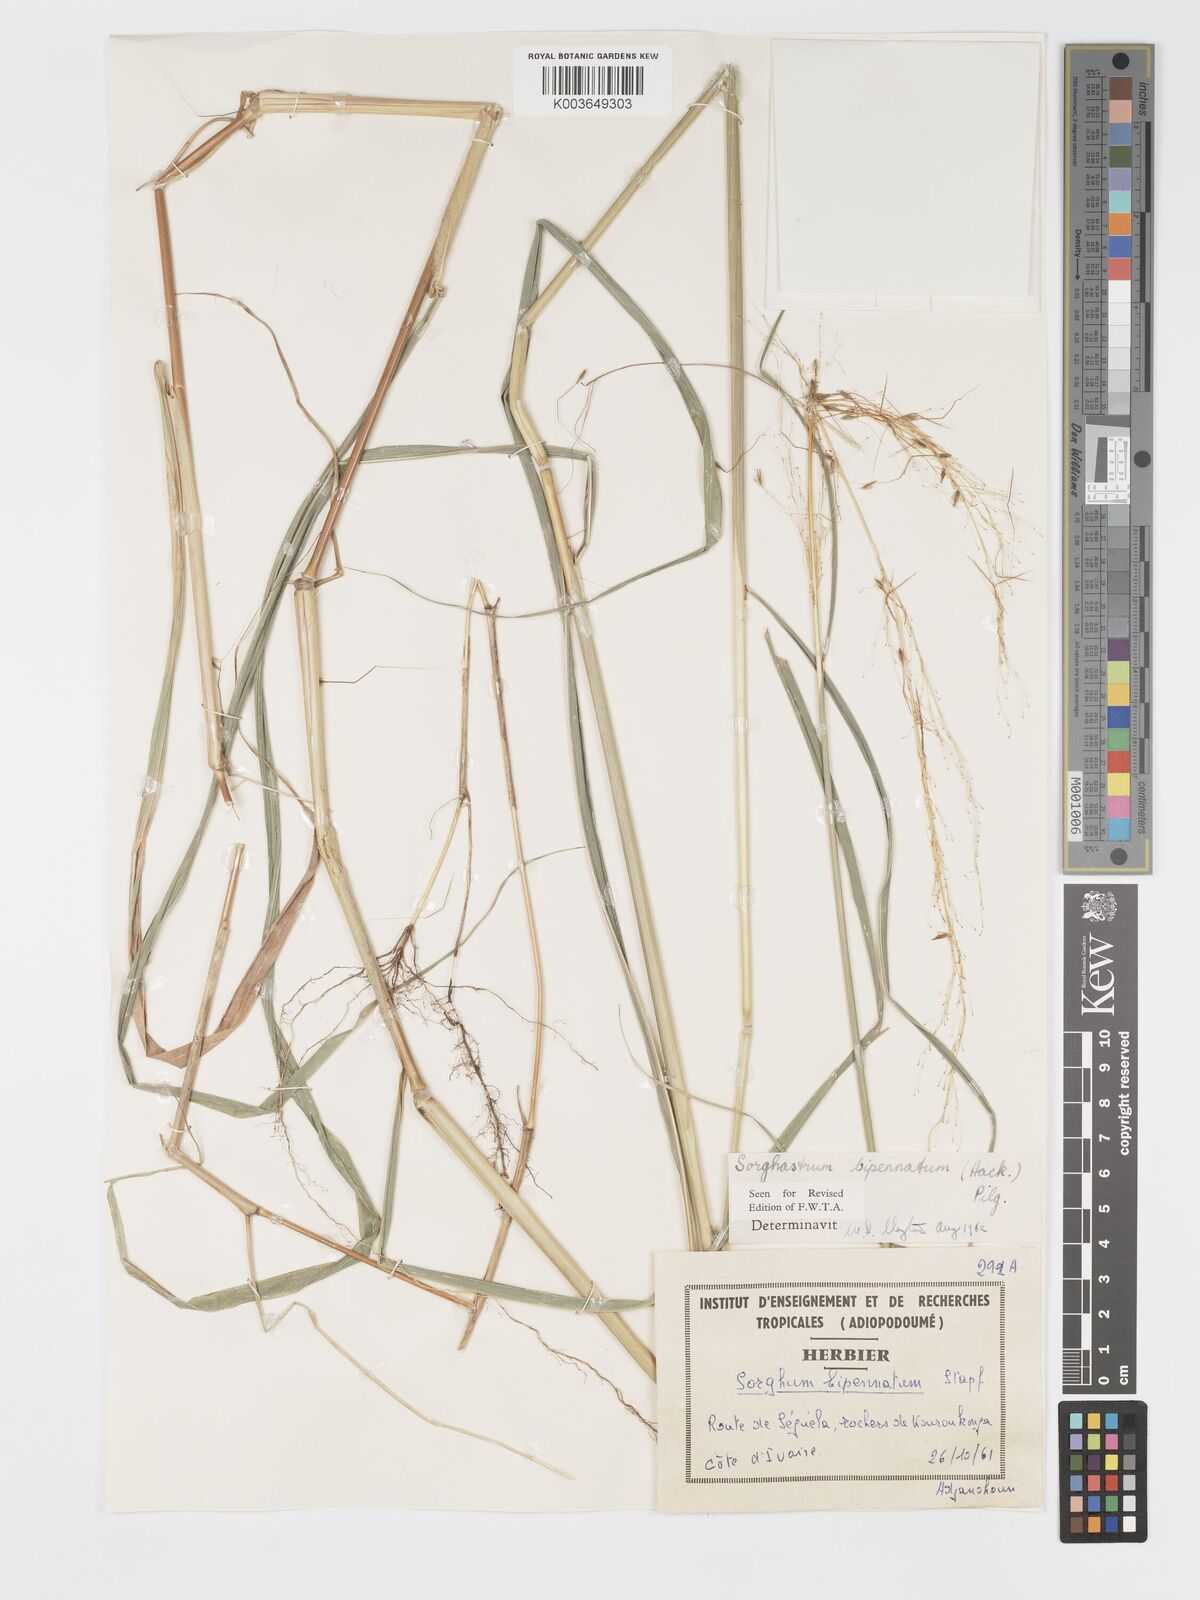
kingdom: Plantae
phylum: Tracheophyta
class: Liliopsida
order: Poales
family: Poaceae
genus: Sorghastrum
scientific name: Sorghastrum incompletum
